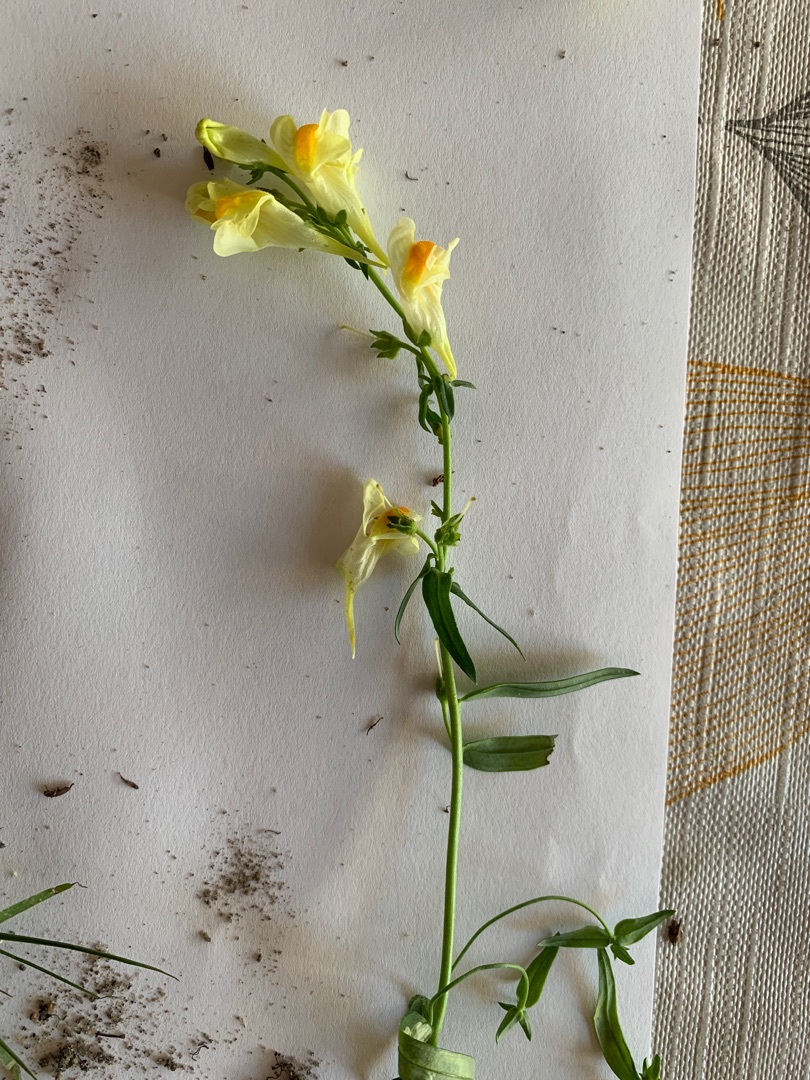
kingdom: Plantae
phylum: Tracheophyta
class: Magnoliopsida
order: Lamiales
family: Plantaginaceae
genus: Linaria
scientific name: Linaria vulgaris
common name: Almindelig torskemund
